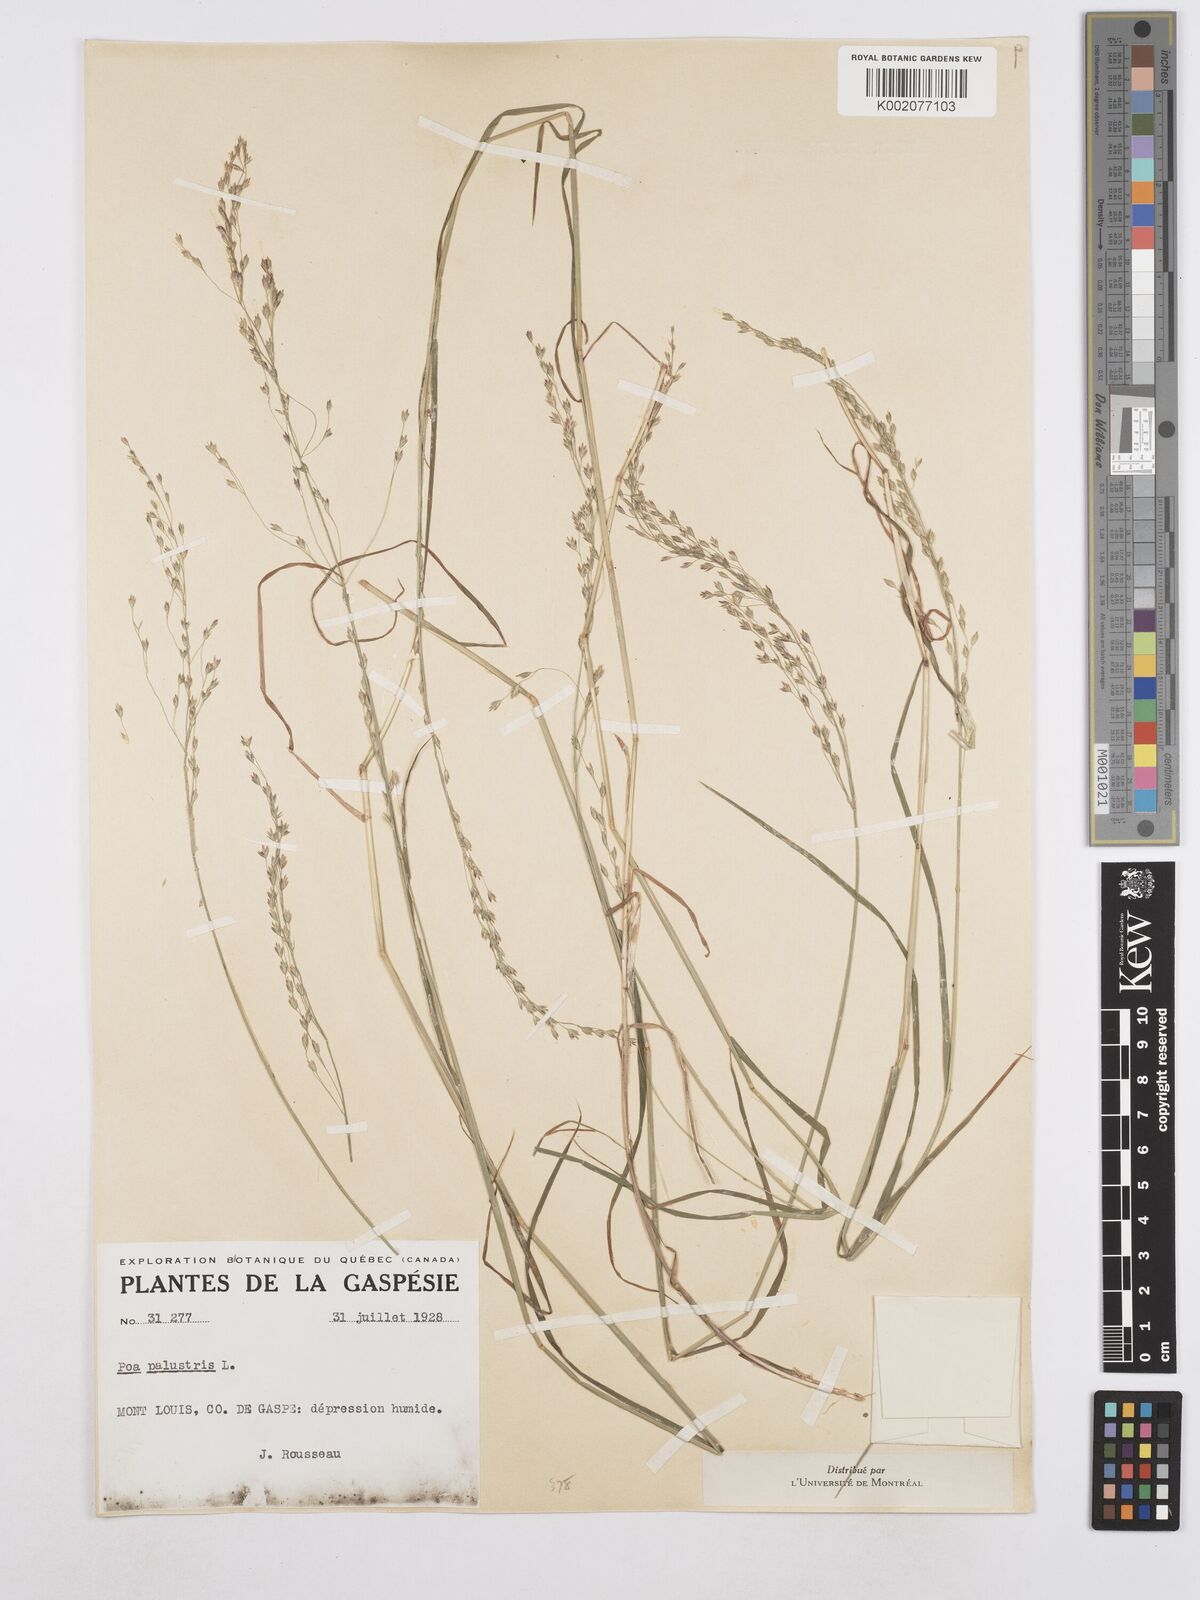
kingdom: Plantae
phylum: Tracheophyta
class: Liliopsida
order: Poales
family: Poaceae
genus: Poa
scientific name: Poa palustris
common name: Swamp meadow-grass
